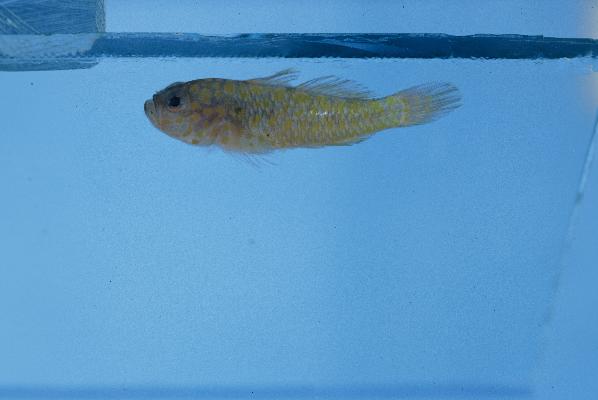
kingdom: Animalia
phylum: Chordata
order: Perciformes
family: Gobiidae
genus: Trimma
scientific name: Trimma flammeum
